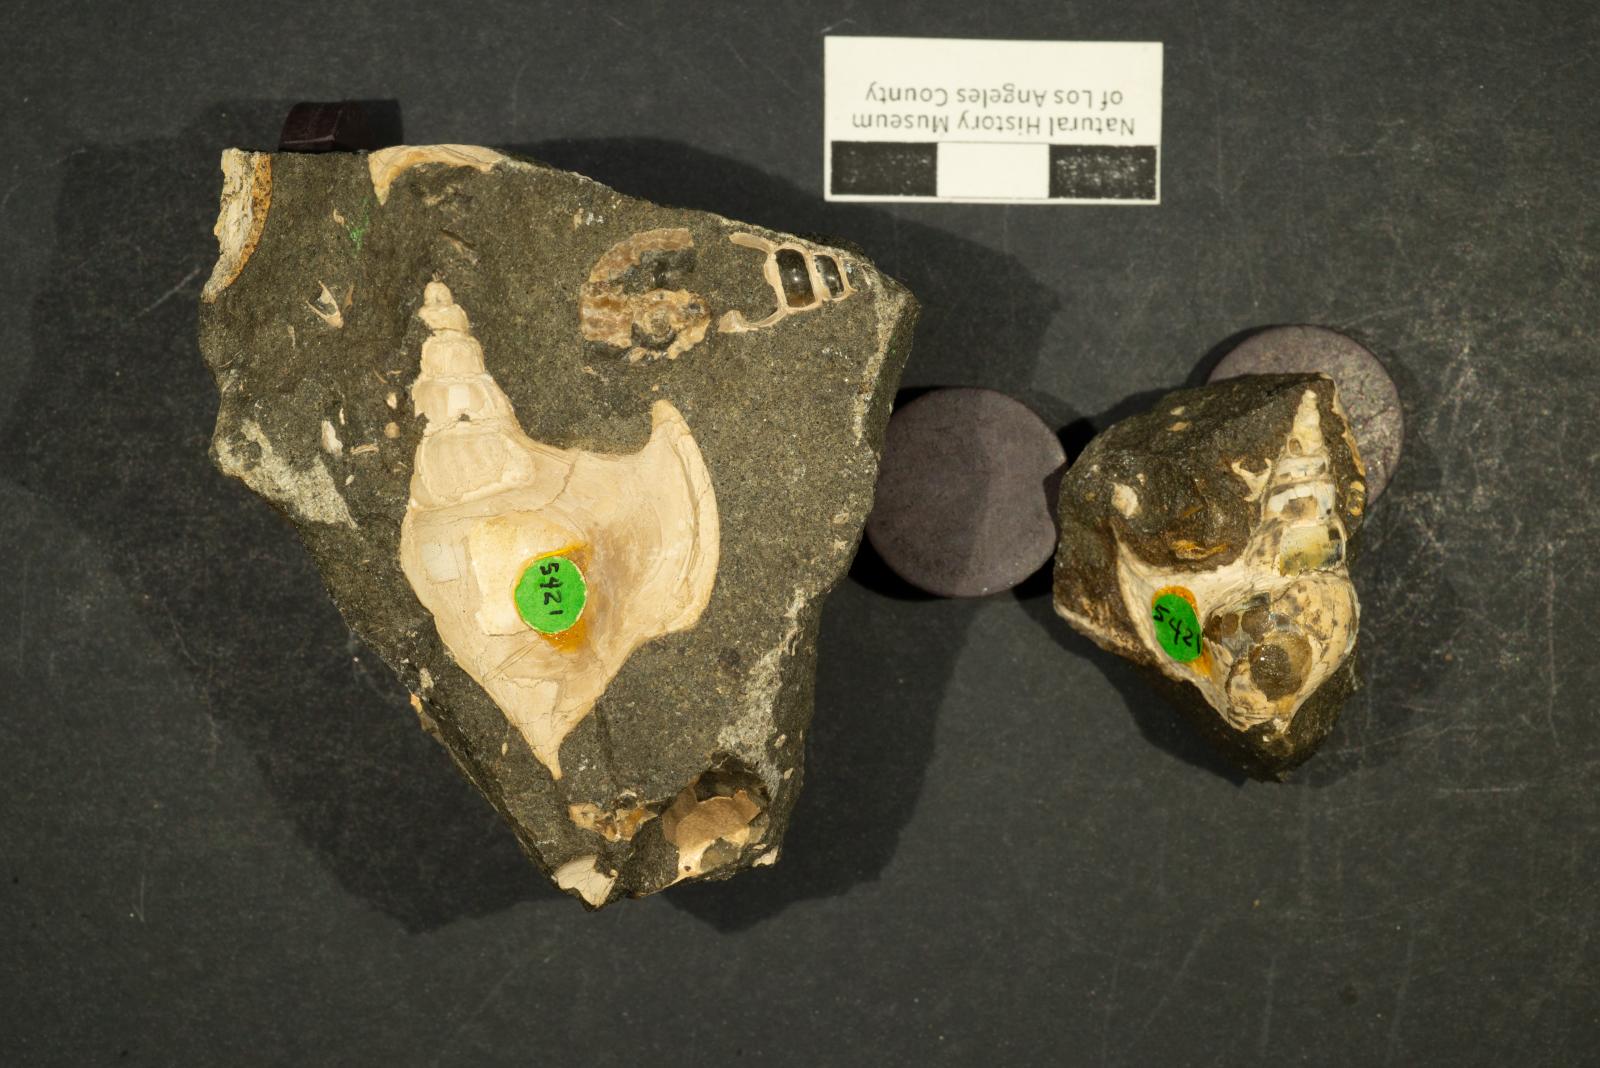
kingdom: Animalia
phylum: Mollusca
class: Gastropoda
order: Littorinimorpha
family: Aporrhaidae
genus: Latiala
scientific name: Latiala sigma
